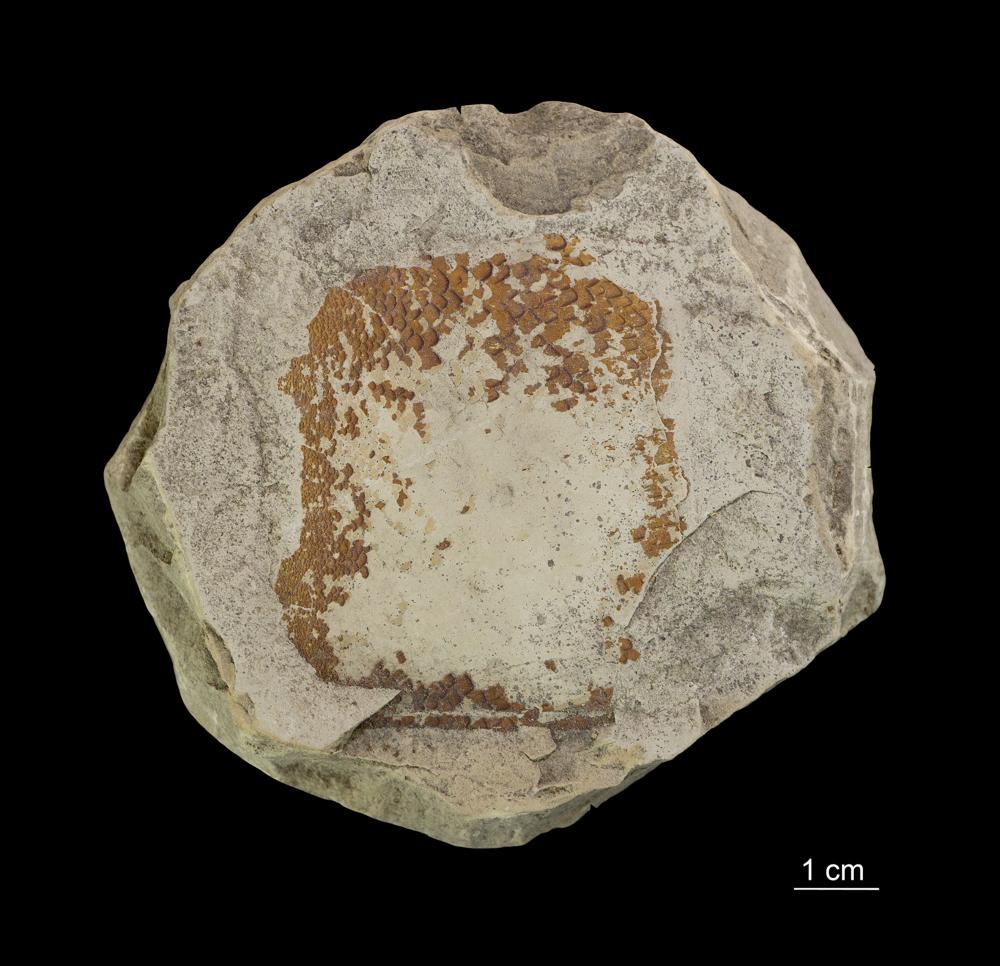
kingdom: Animalia
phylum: Chordata
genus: Pterygotus
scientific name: Pterygotus
